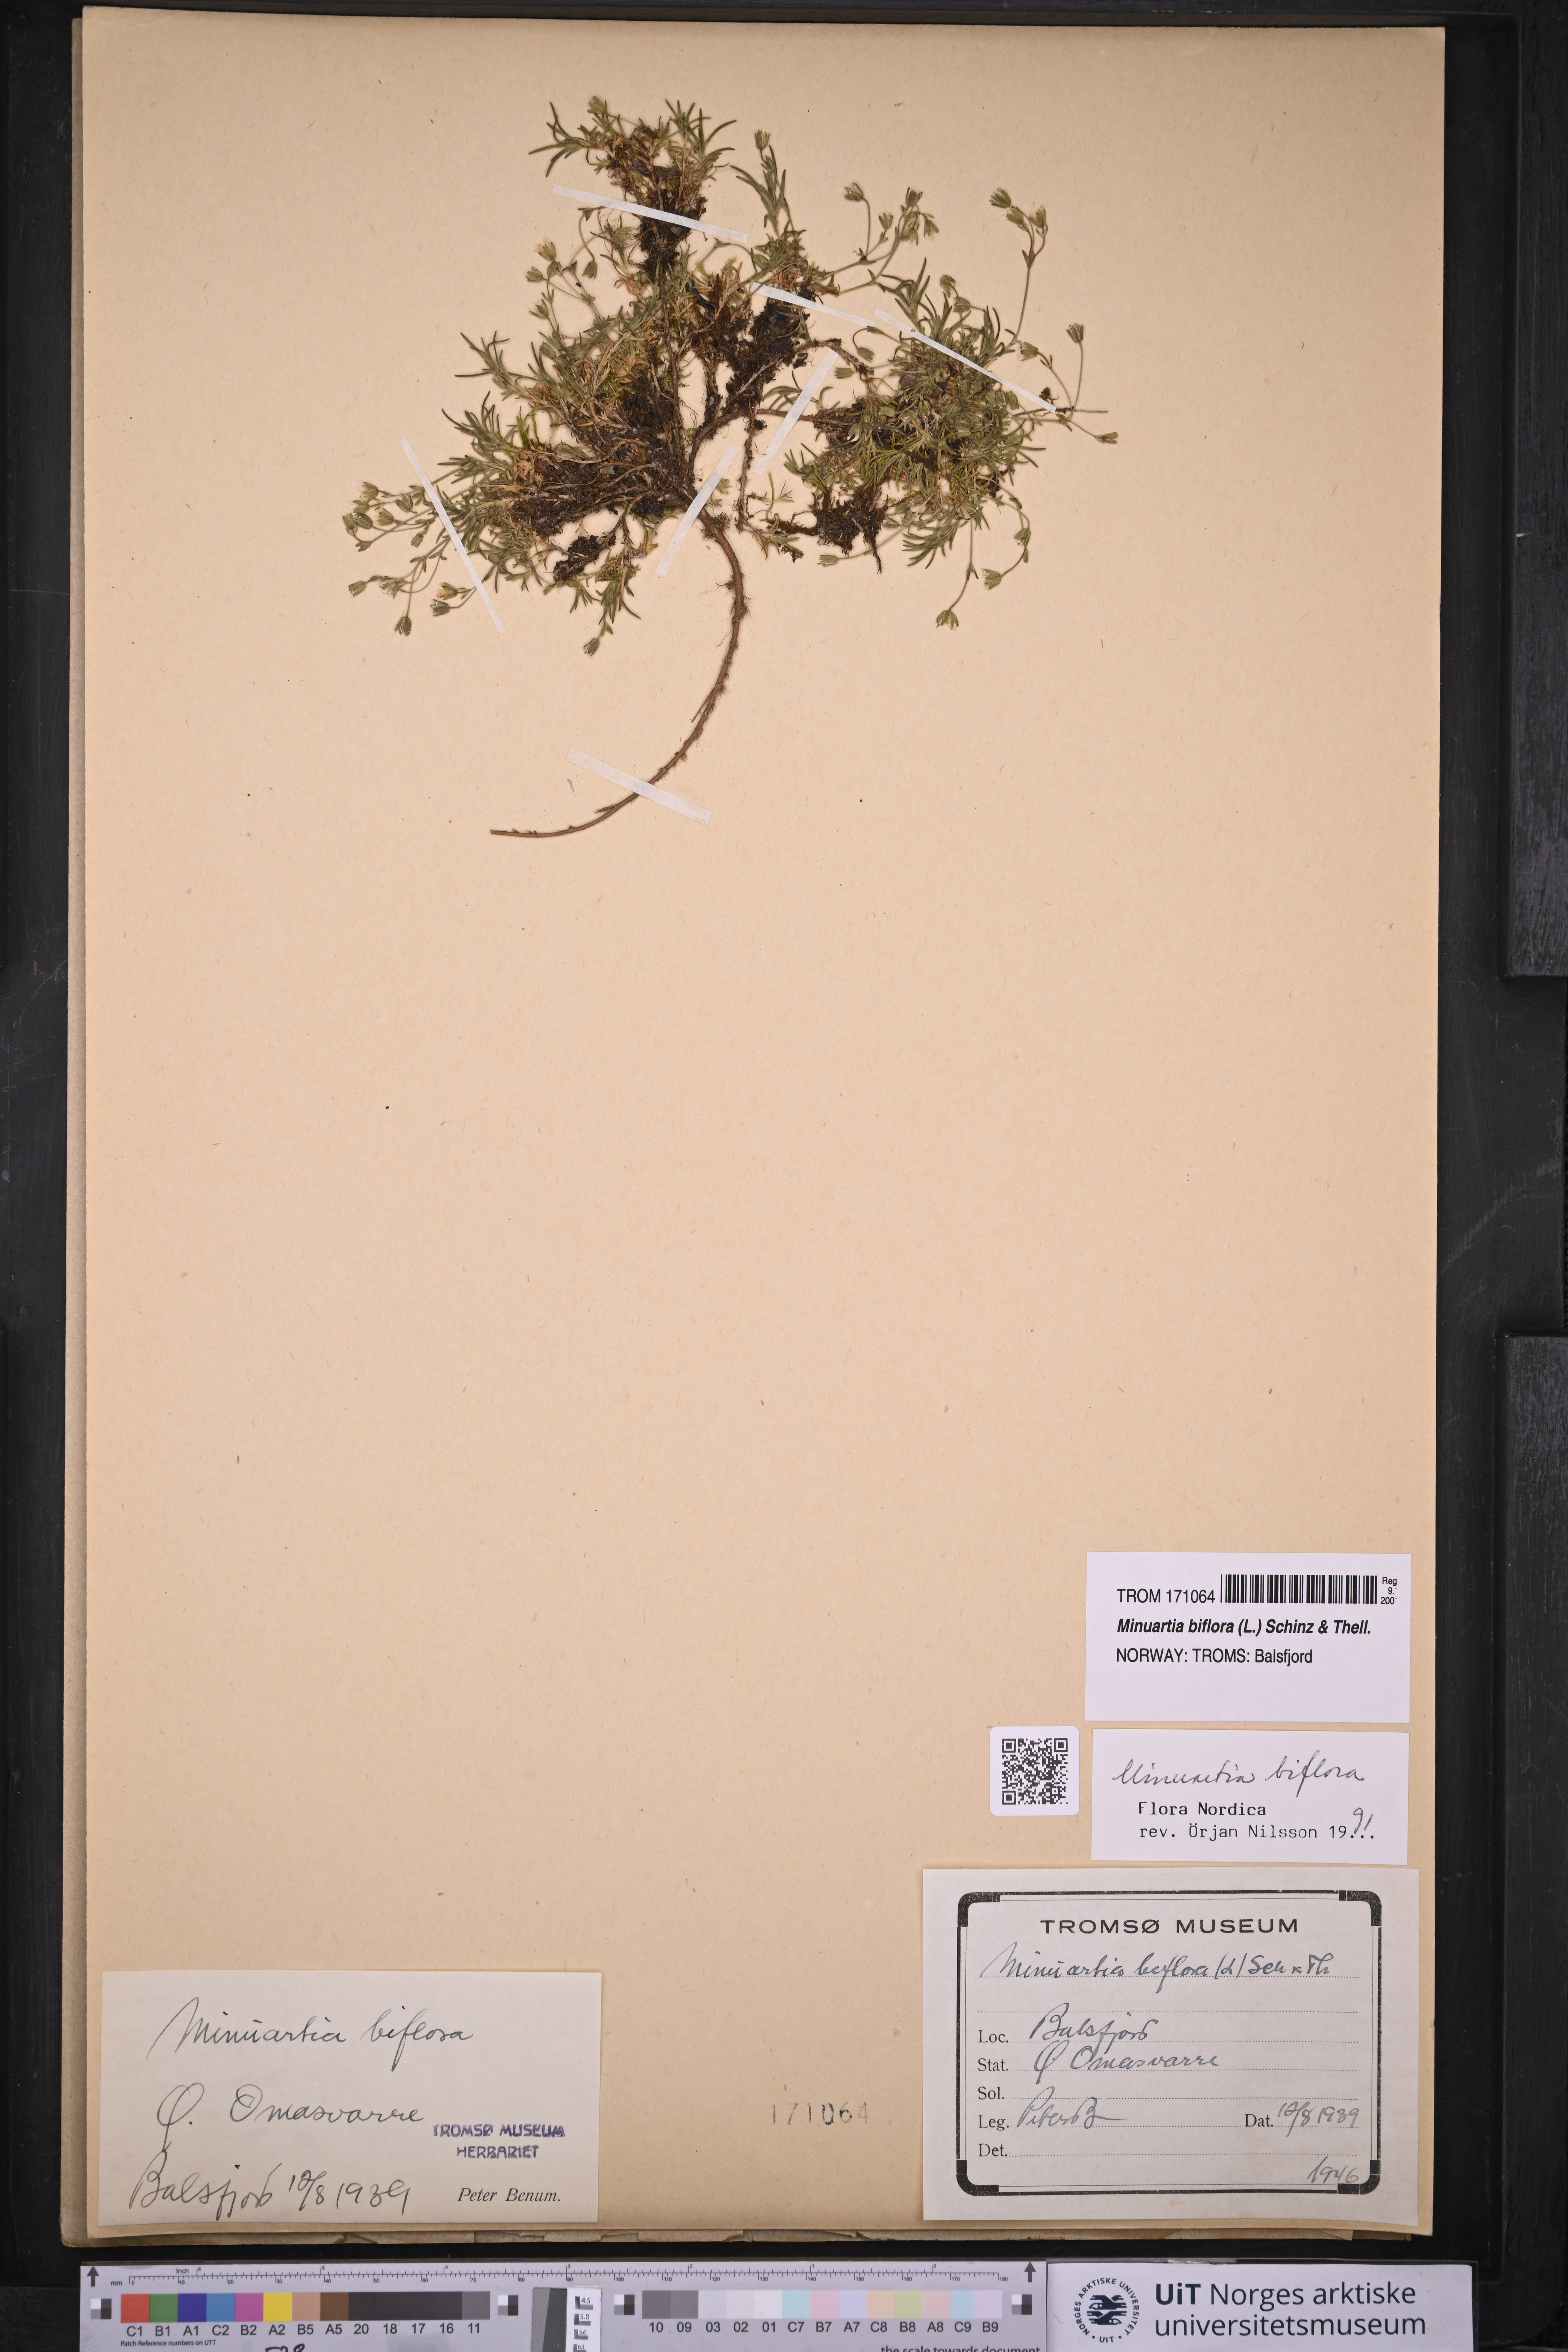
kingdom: Plantae
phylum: Tracheophyta
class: Magnoliopsida
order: Caryophyllales
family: Caryophyllaceae
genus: Cherleria
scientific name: Cherleria biflora
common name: Mountain sandwort
